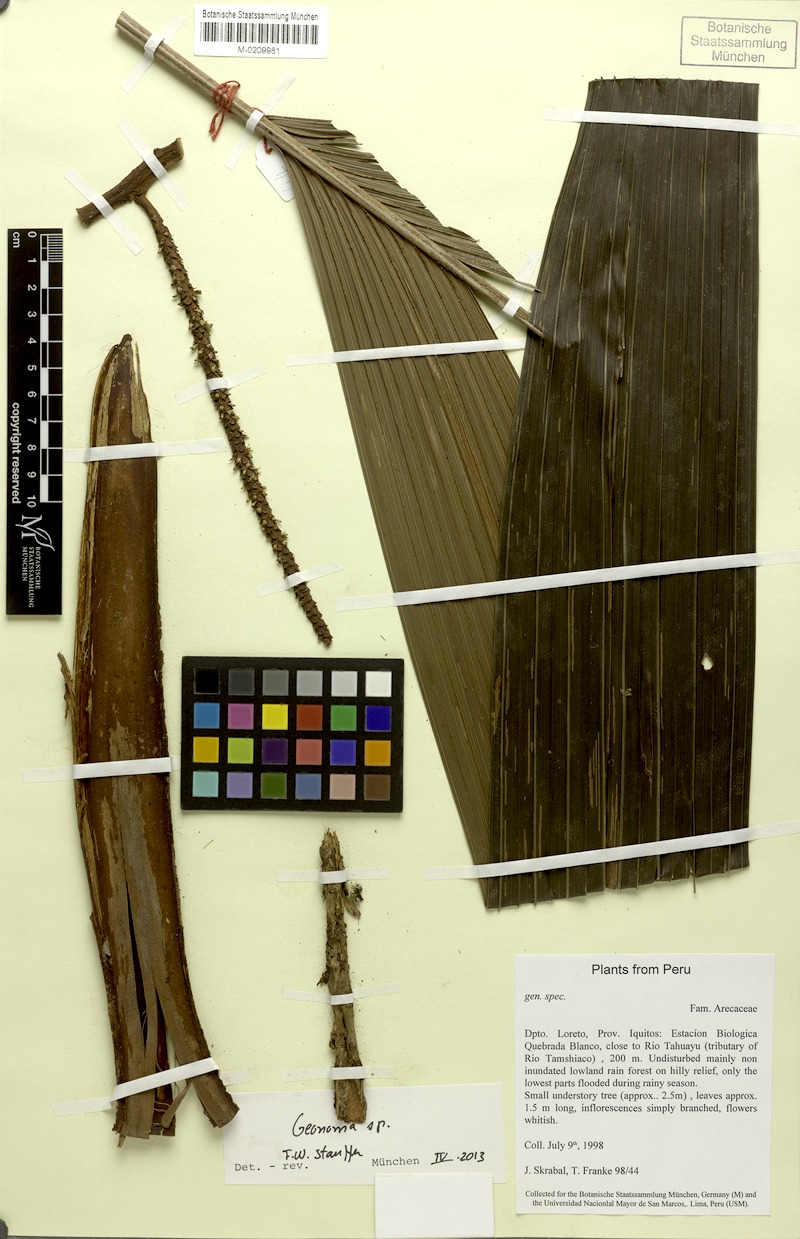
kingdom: Plantae
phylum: Tracheophyta
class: Liliopsida
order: Arecales
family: Arecaceae
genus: Geonoma
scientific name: Geonoma
